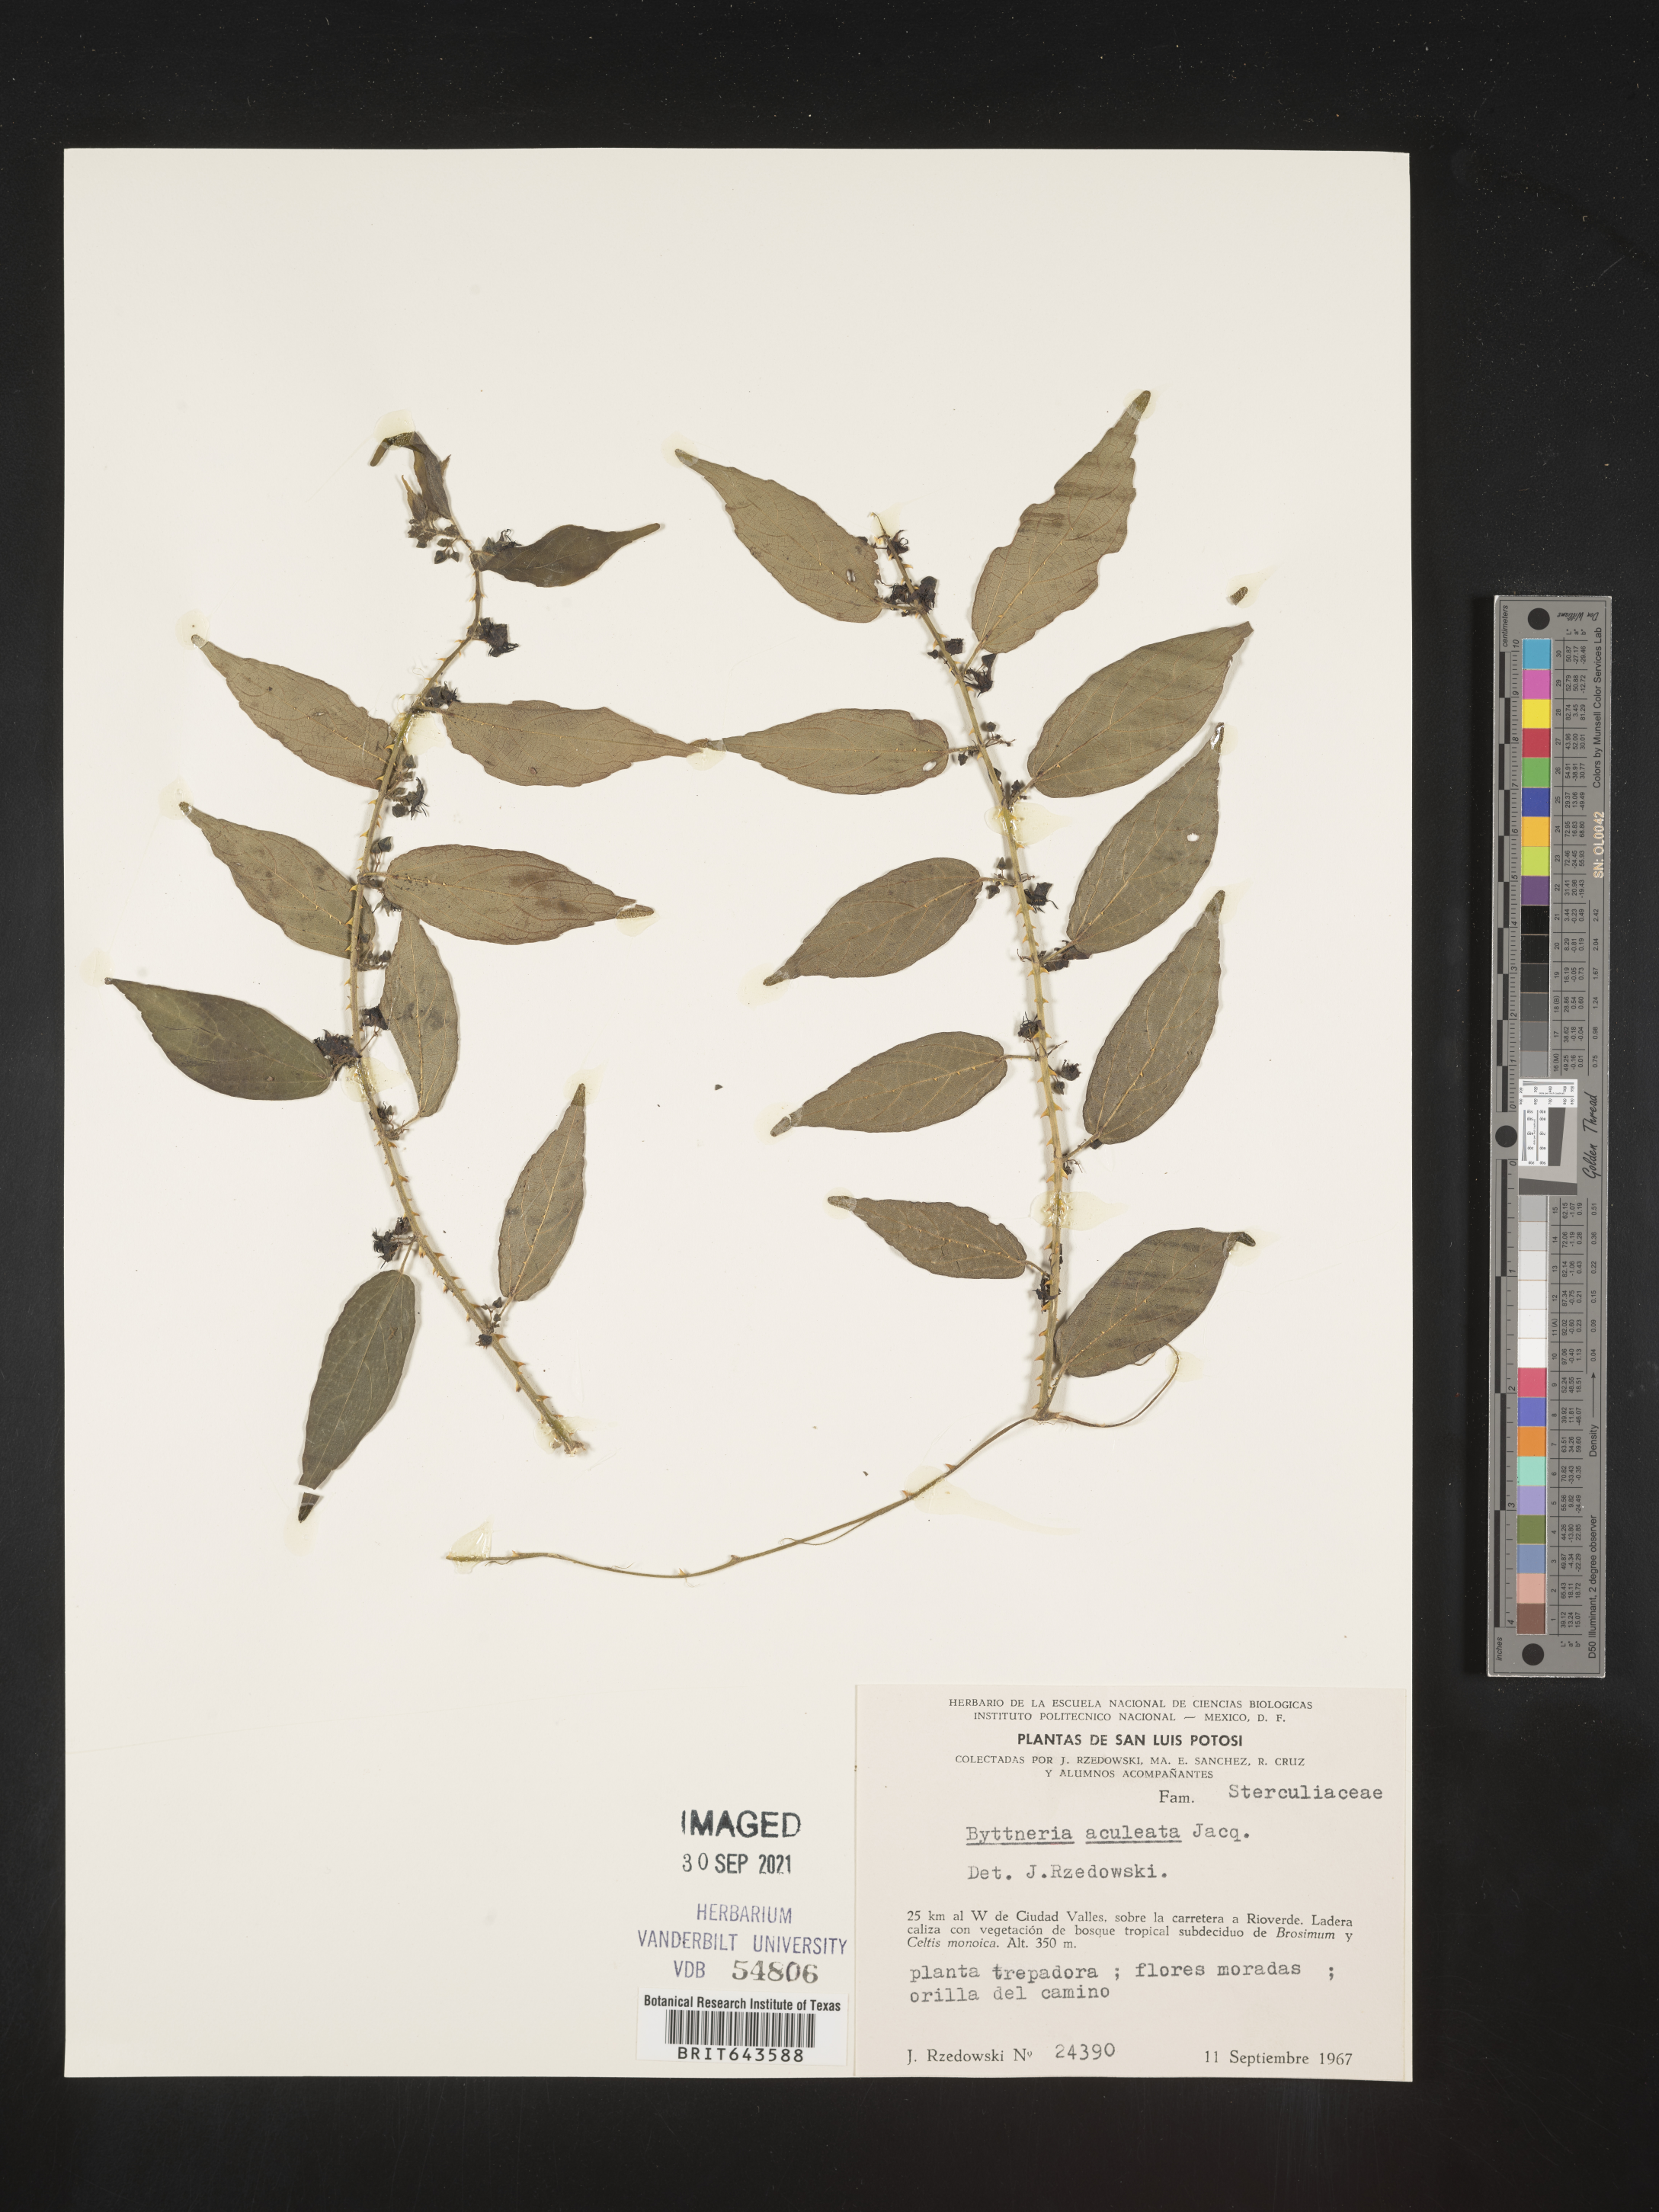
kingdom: Plantae
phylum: Tracheophyta
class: Magnoliopsida
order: Malvales
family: Malvaceae
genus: Byttneria
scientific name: Byttneria
